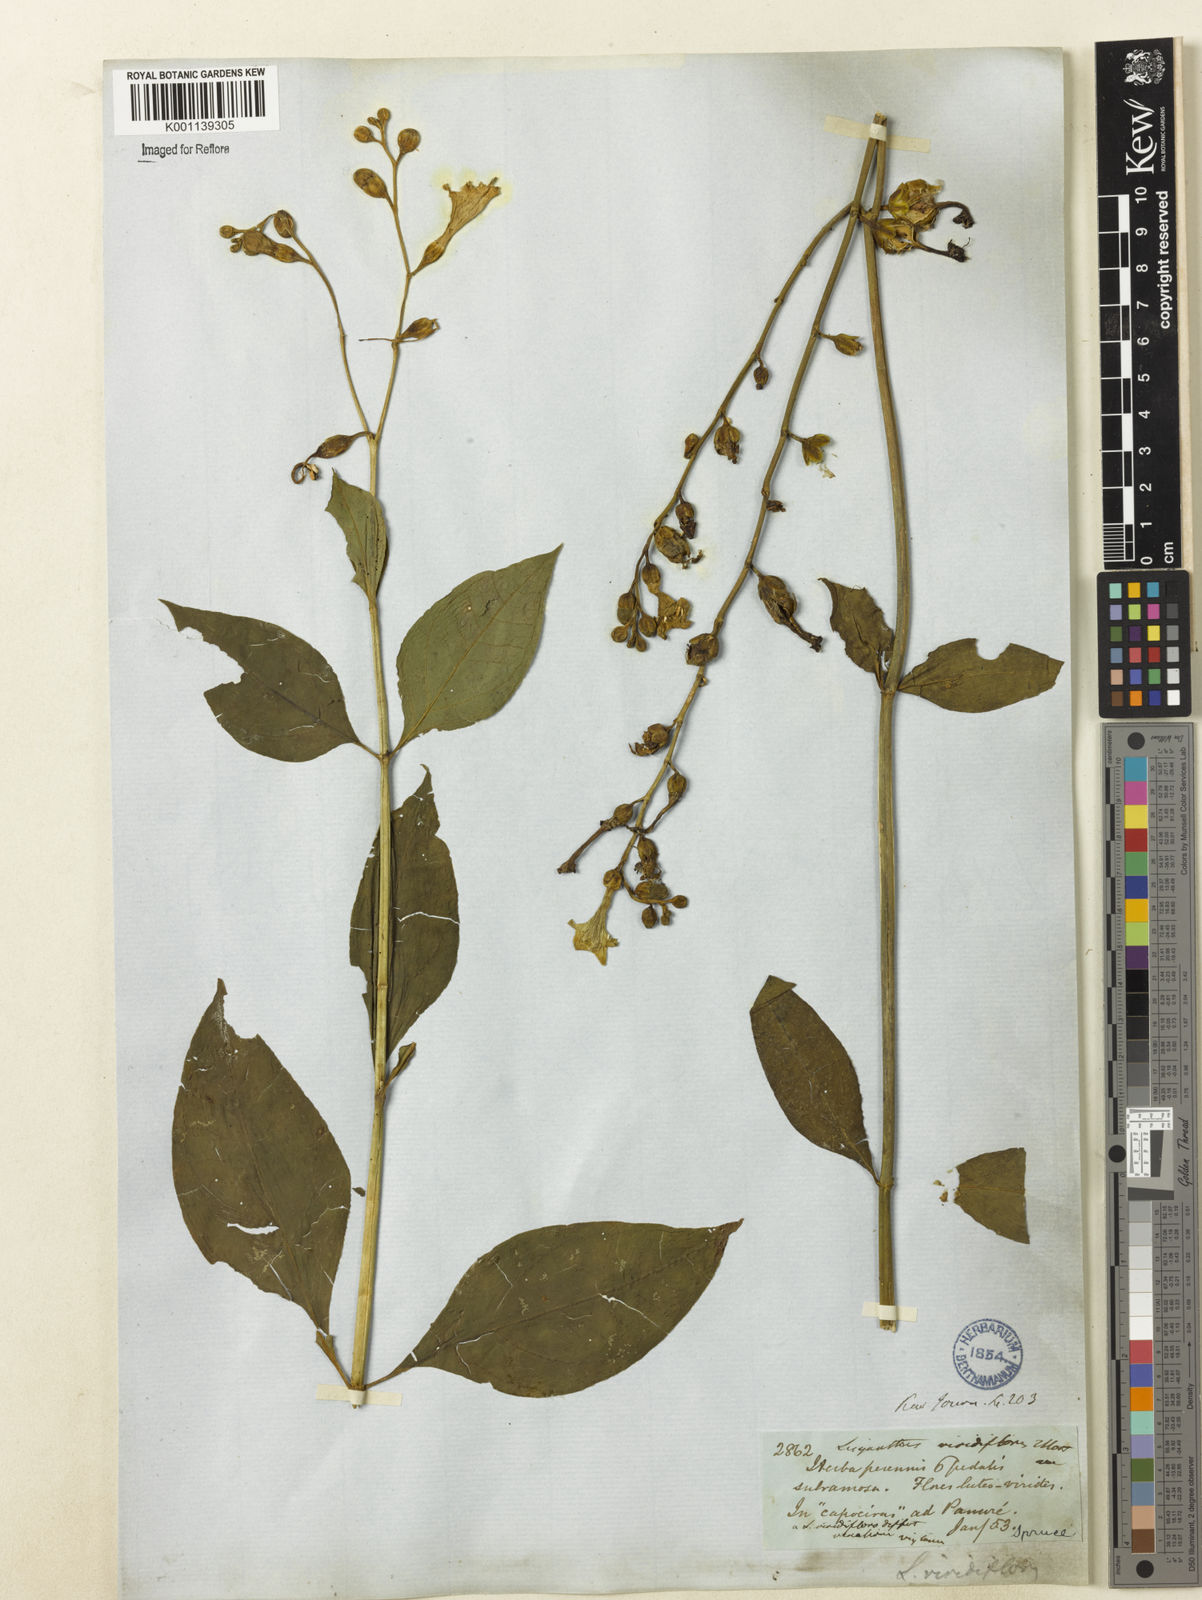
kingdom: Plantae
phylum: Tracheophyta
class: Magnoliopsida
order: Gentianales
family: Gentianaceae
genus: Chelonanthus
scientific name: Chelonanthus viridiflorus
